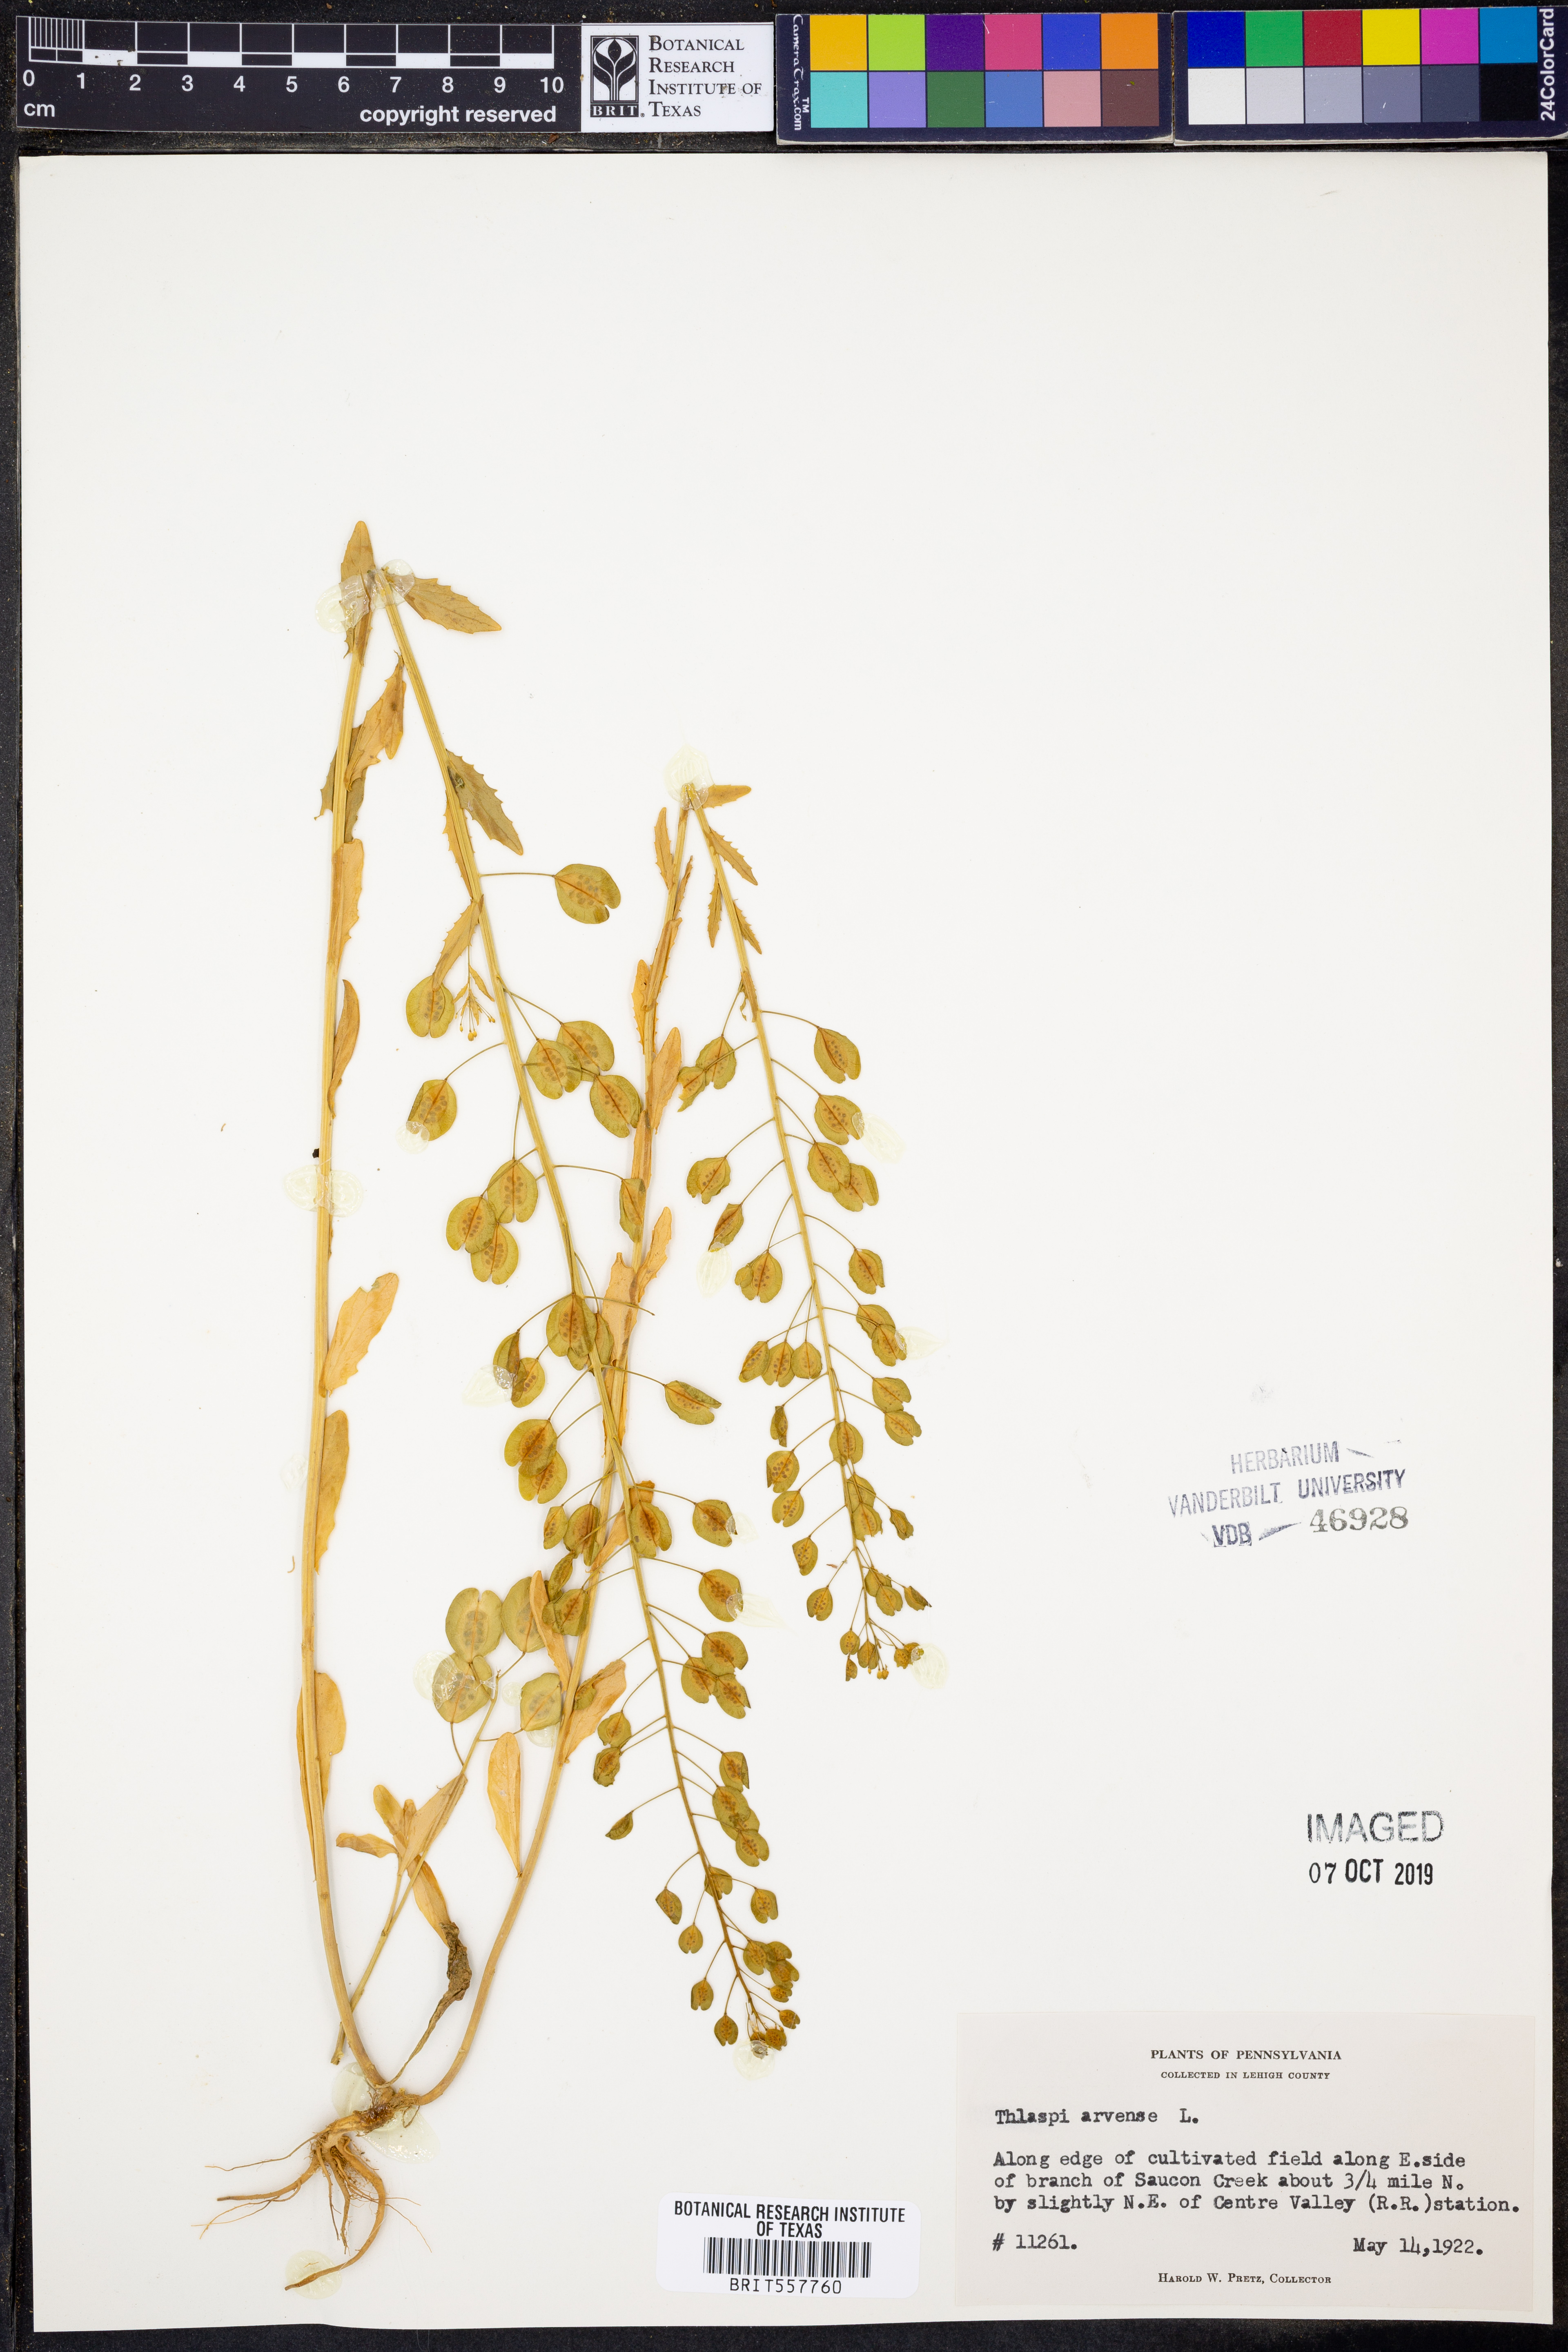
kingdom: Plantae
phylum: Tracheophyta
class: Magnoliopsida
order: Brassicales
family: Brassicaceae
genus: Thlaspi
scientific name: Thlaspi arvense
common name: Field pennycress
